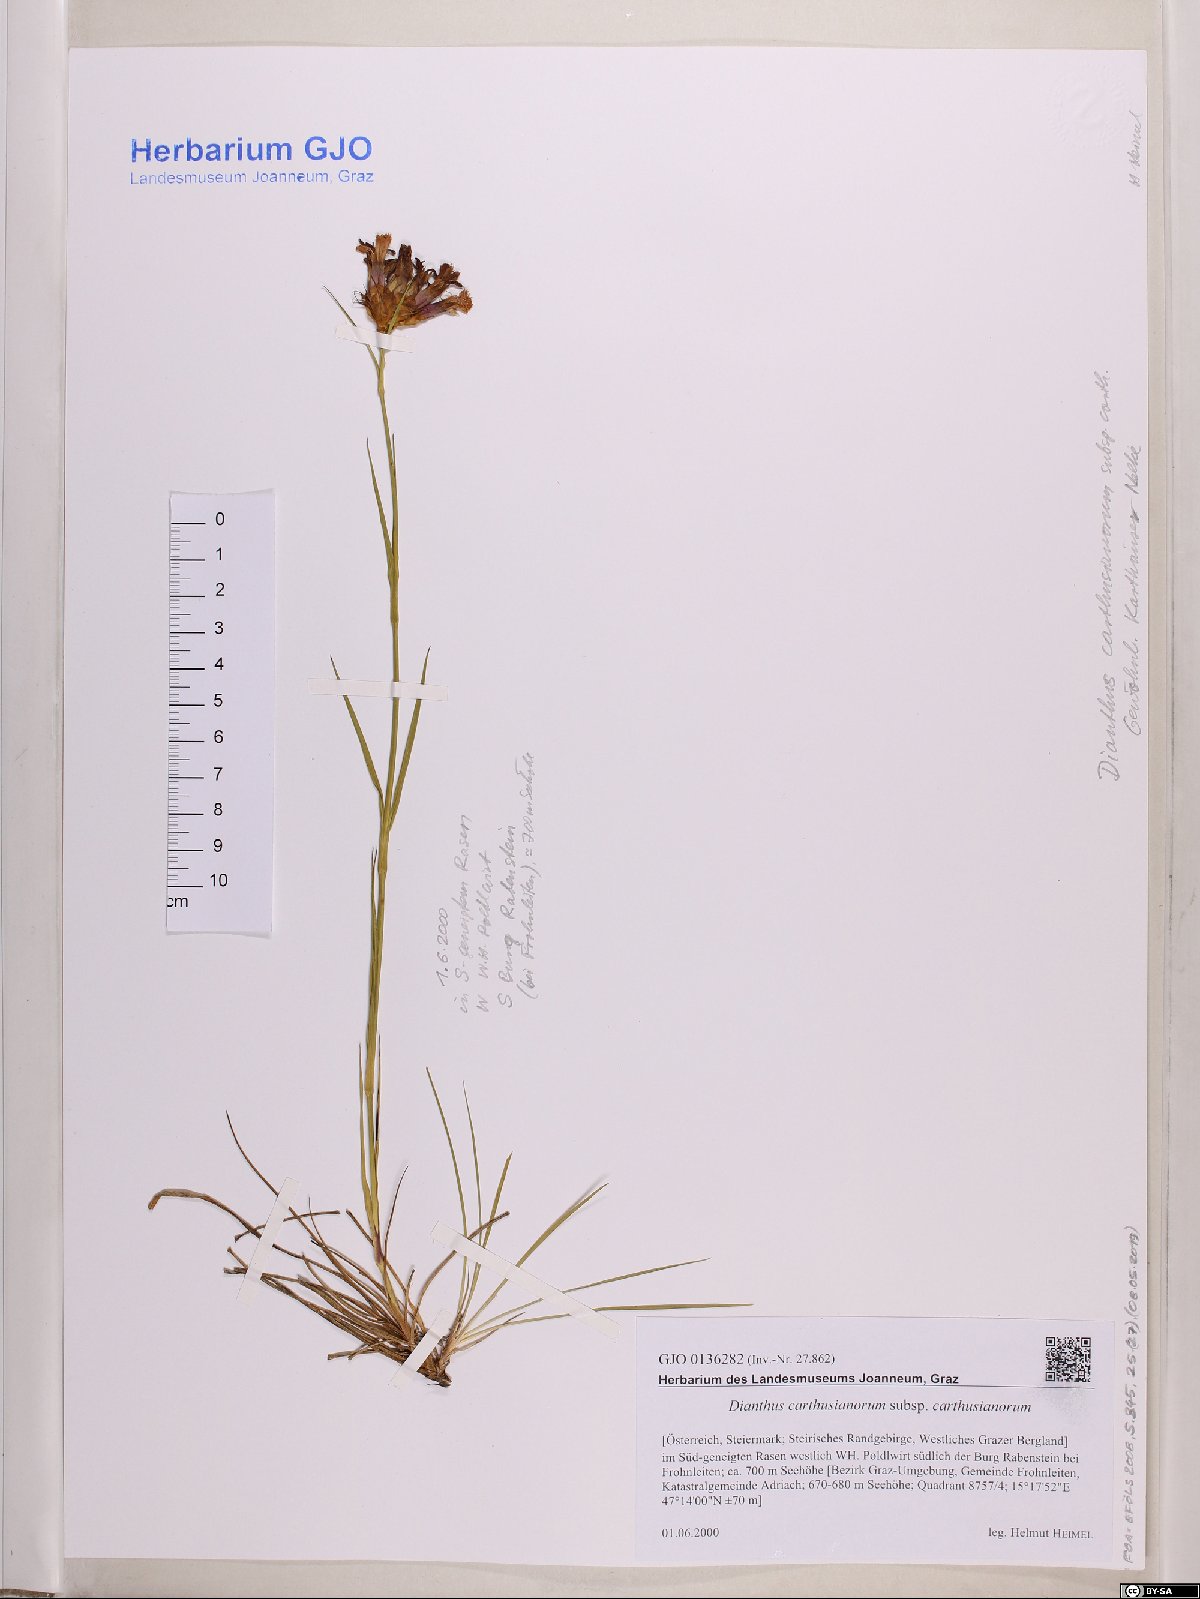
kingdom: Plantae
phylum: Tracheophyta
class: Magnoliopsida
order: Caryophyllales
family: Caryophyllaceae
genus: Dianthus
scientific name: Dianthus carthusianorum
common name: Carthusian pink
